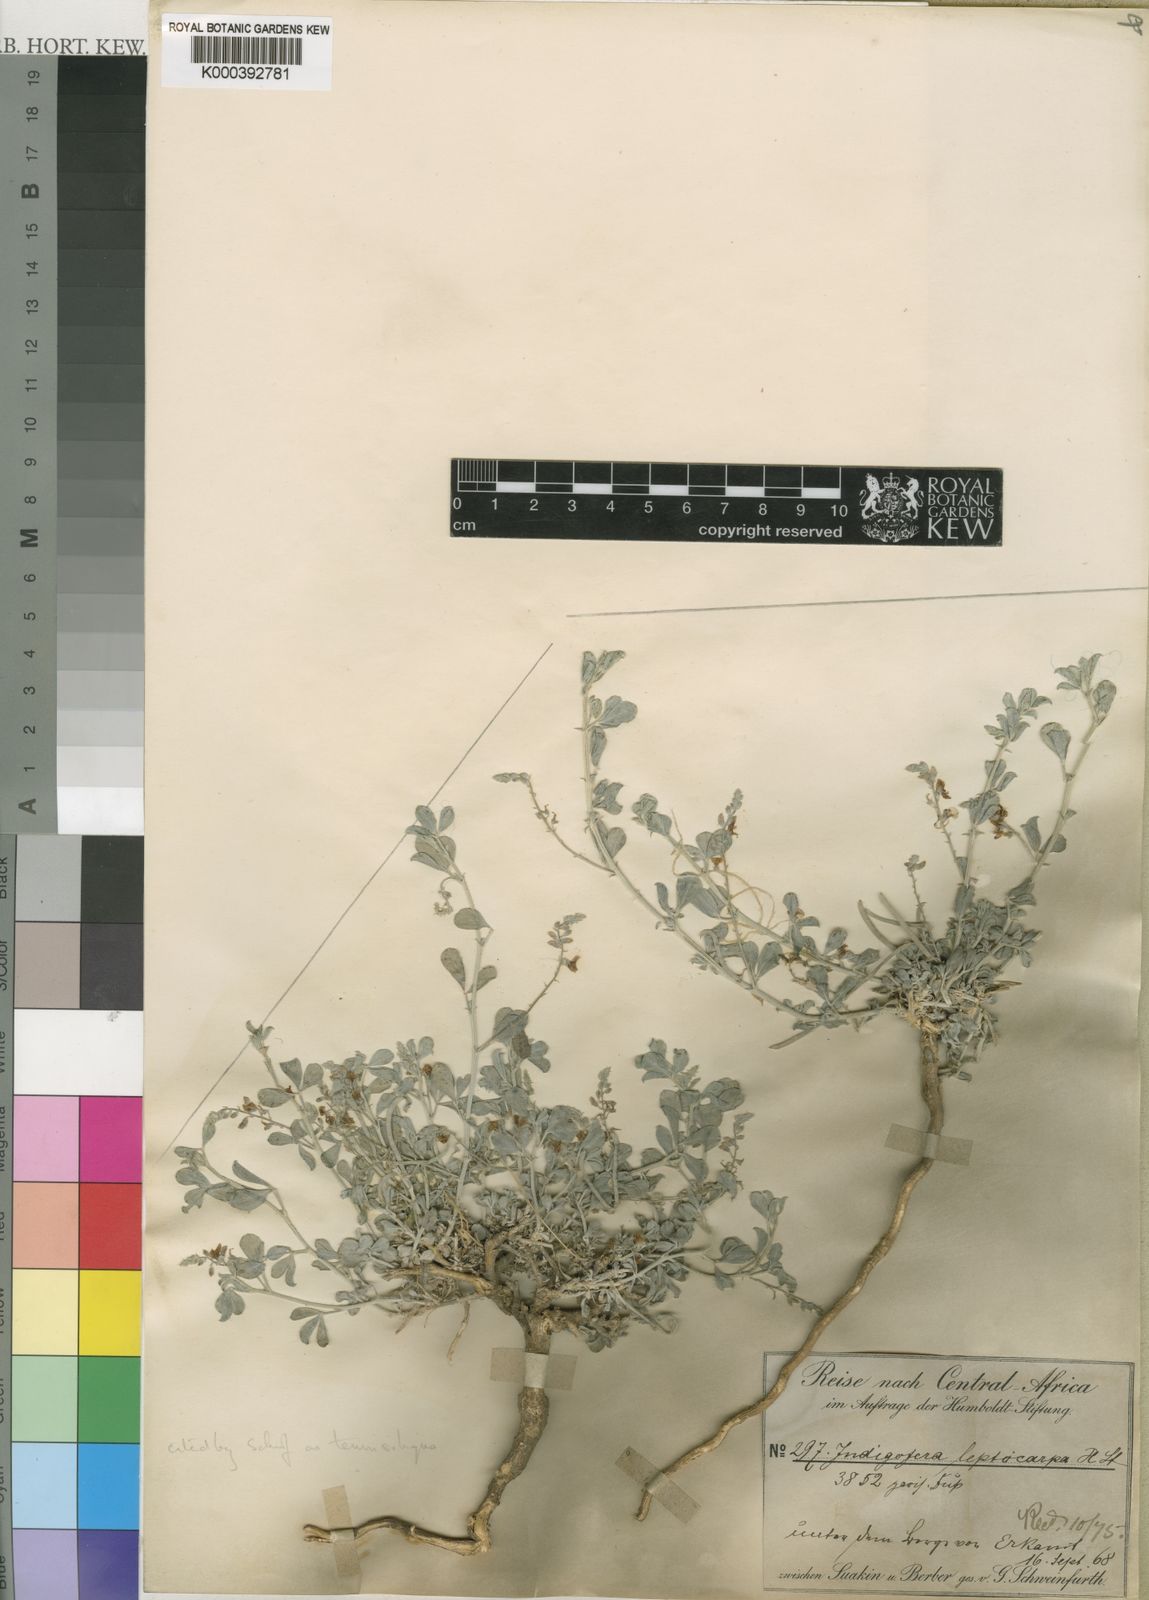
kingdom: Plantae
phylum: Tracheophyta
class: Magnoliopsida
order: Fabales
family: Fabaceae
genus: Microcharis
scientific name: Microcharis tritoides
